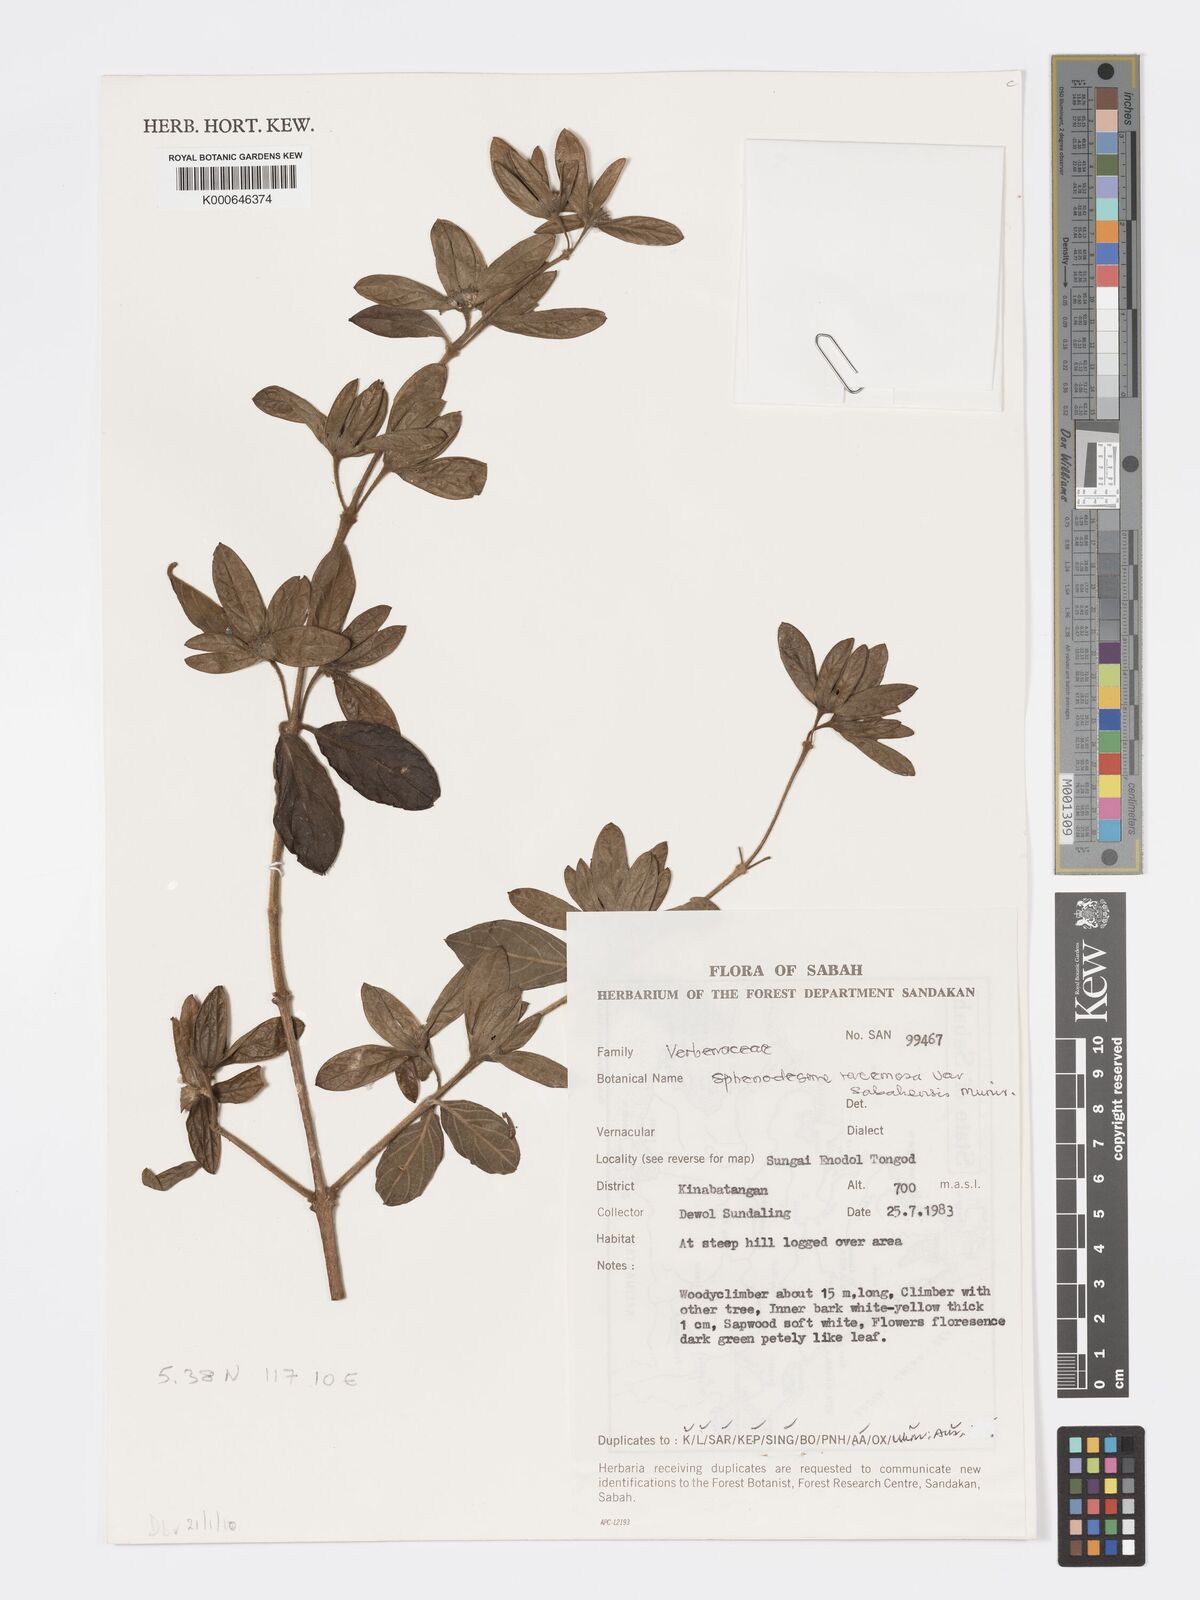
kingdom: Plantae
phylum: Tracheophyta
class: Magnoliopsida
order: Lamiales
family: Lamiaceae
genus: Sphenodesme
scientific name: Sphenodesme racemosa
